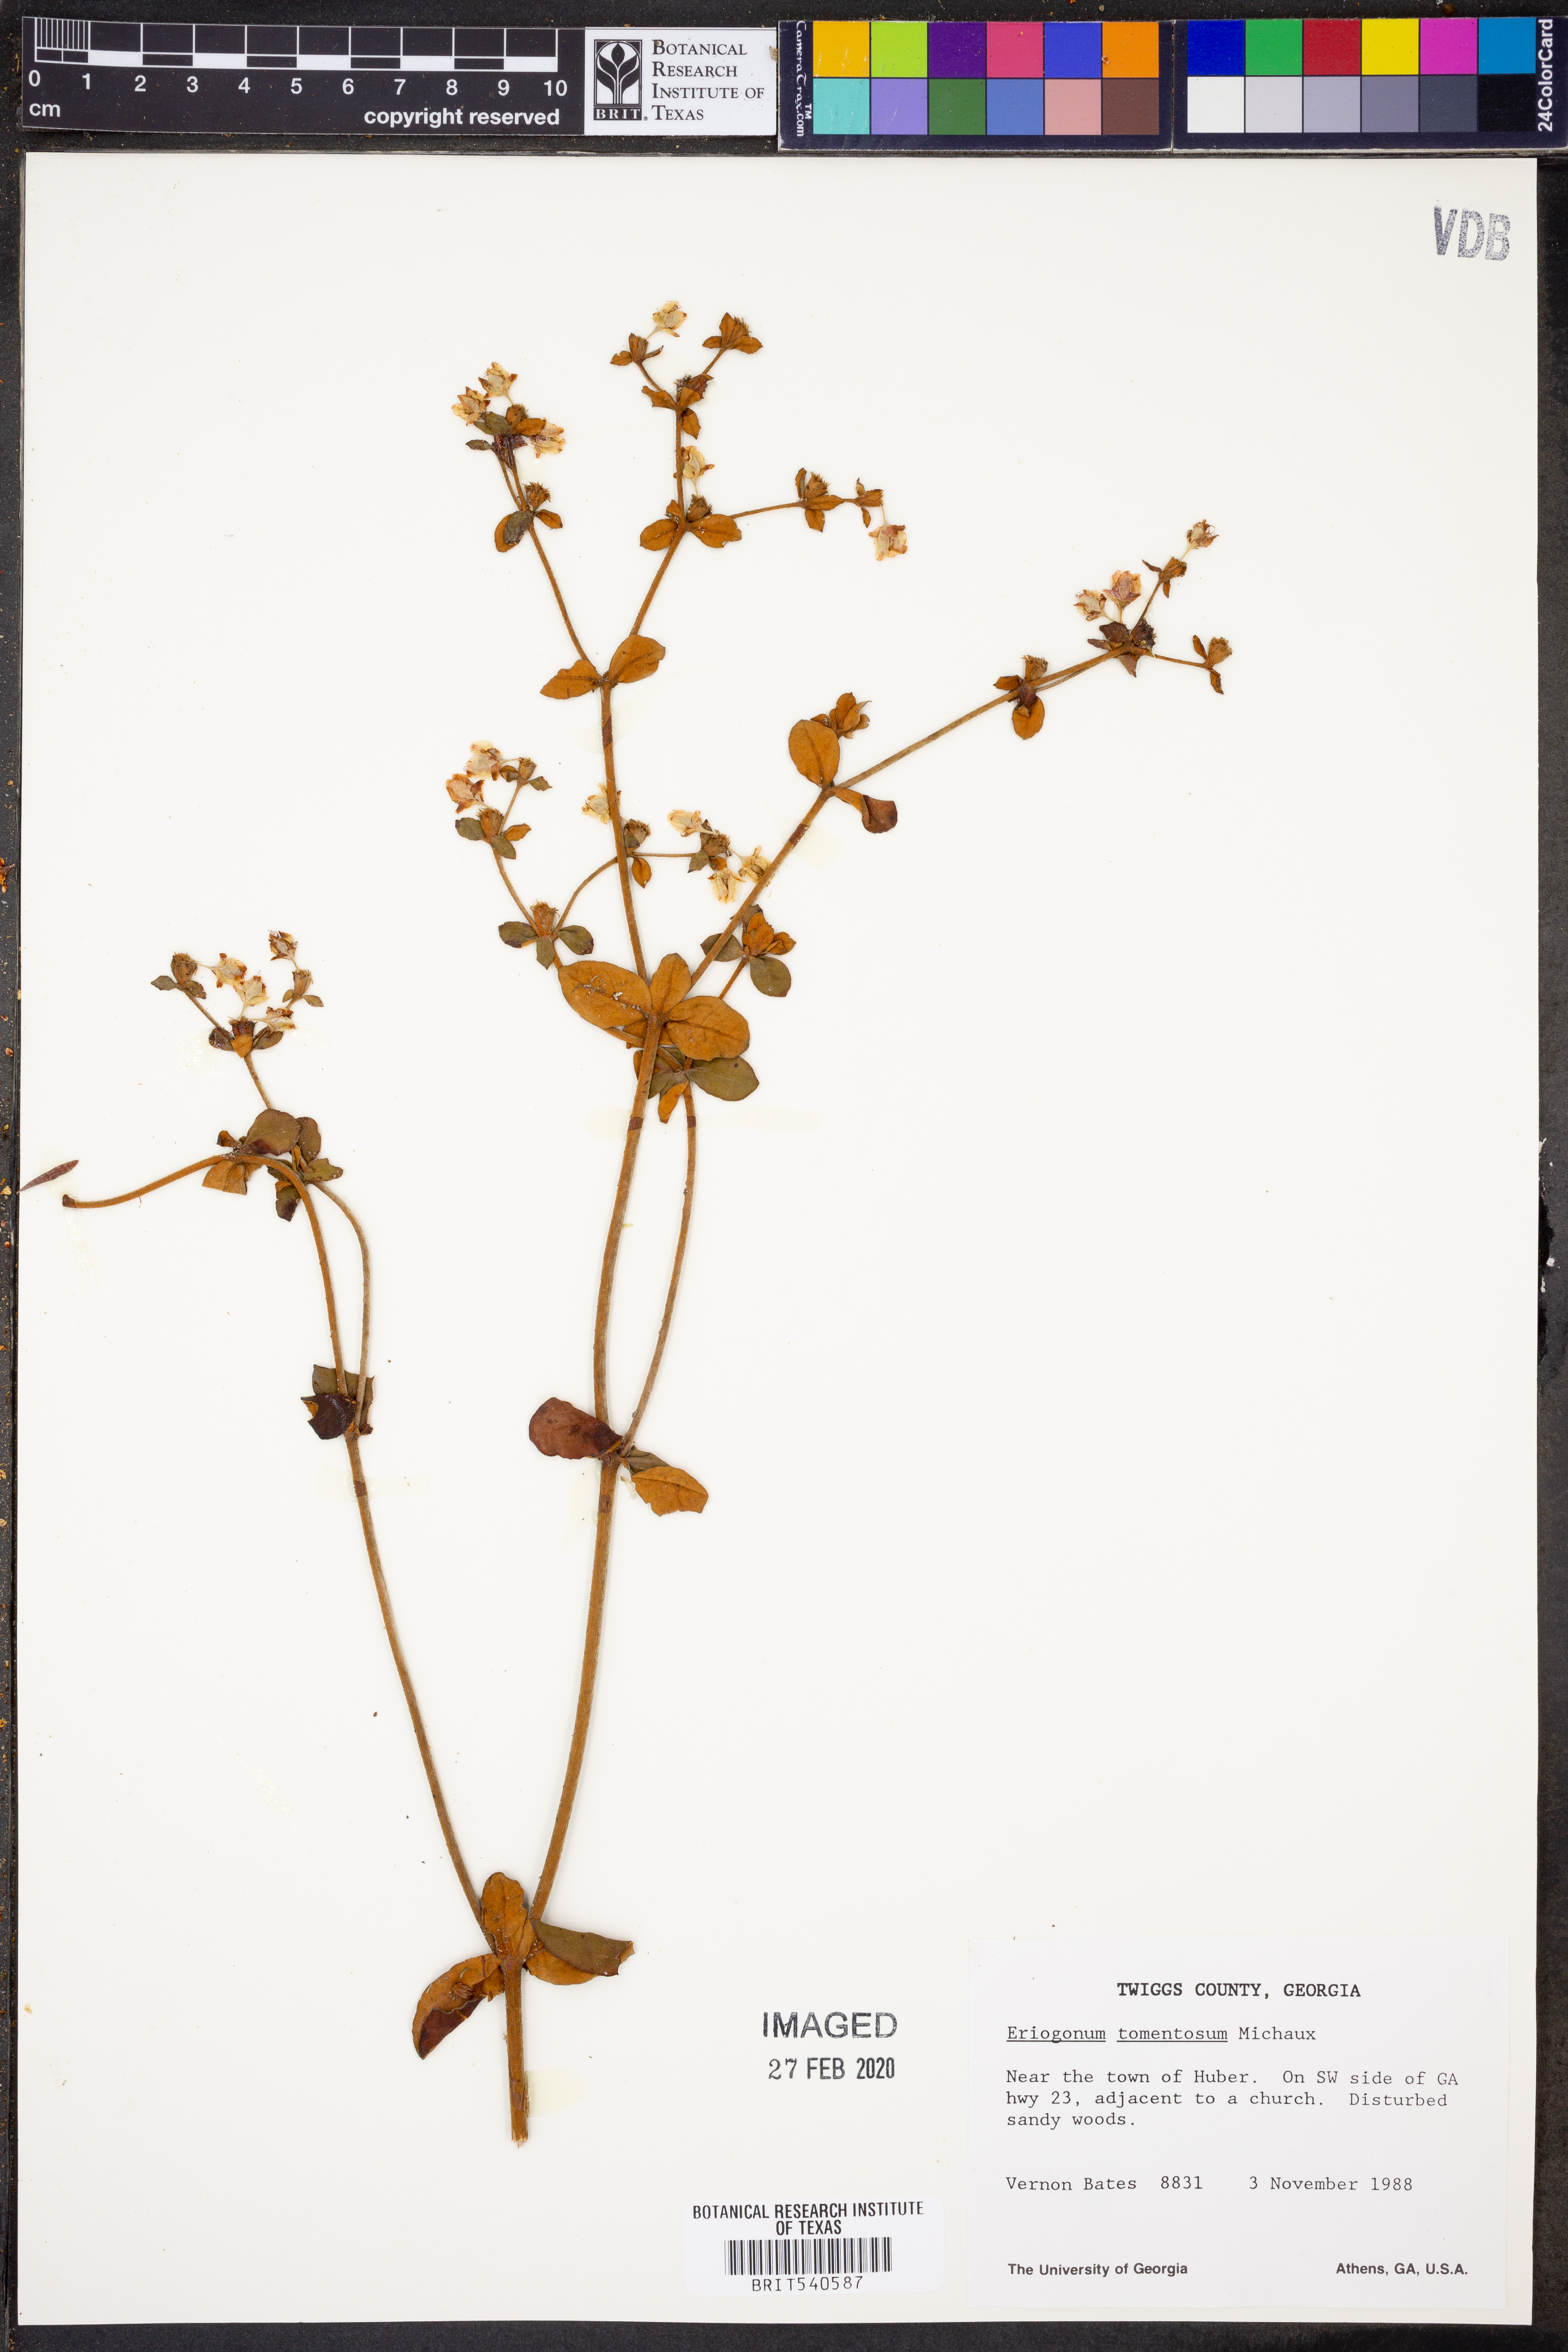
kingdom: Plantae
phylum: Tracheophyta
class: Magnoliopsida
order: Caryophyllales
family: Polygonaceae
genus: Eriogonum
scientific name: Eriogonum tomentosum
